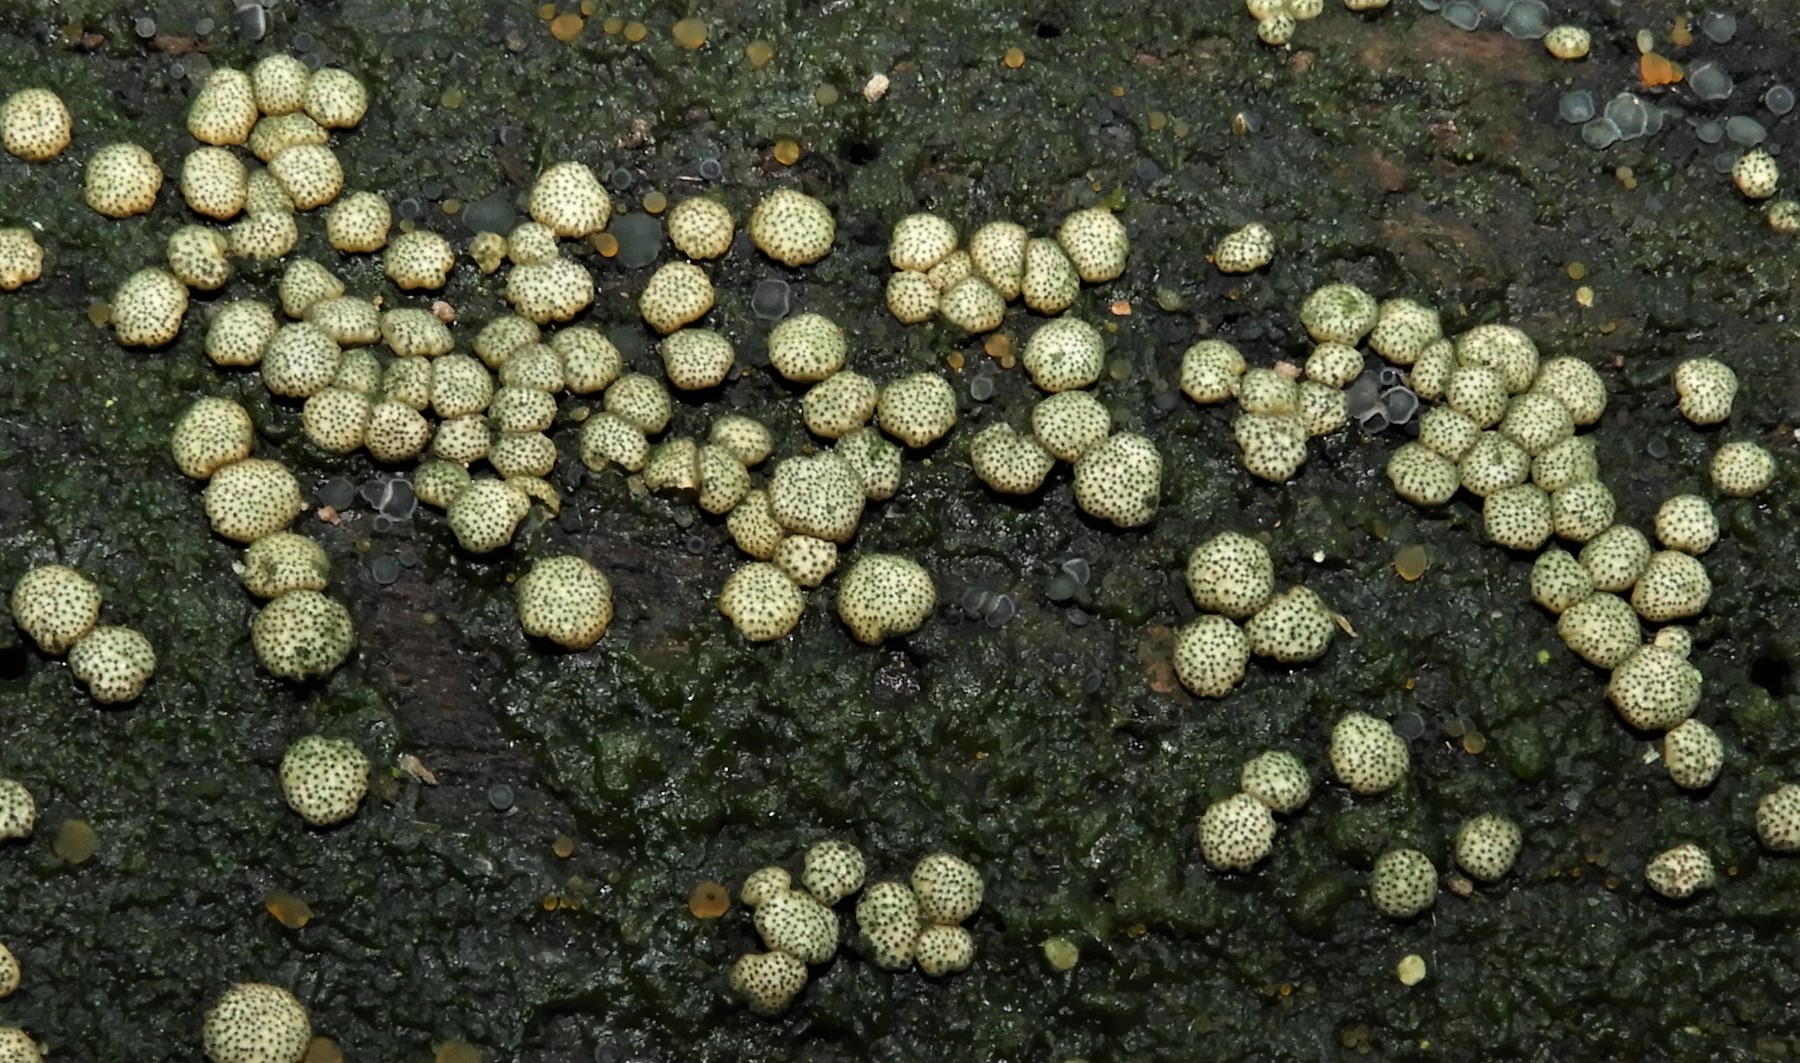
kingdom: Fungi
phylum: Ascomycota
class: Sordariomycetes
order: Hypocreales
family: Hypocreaceae
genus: Trichoderma
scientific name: Trichoderma strictipile
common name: grønprikket kødkerne
